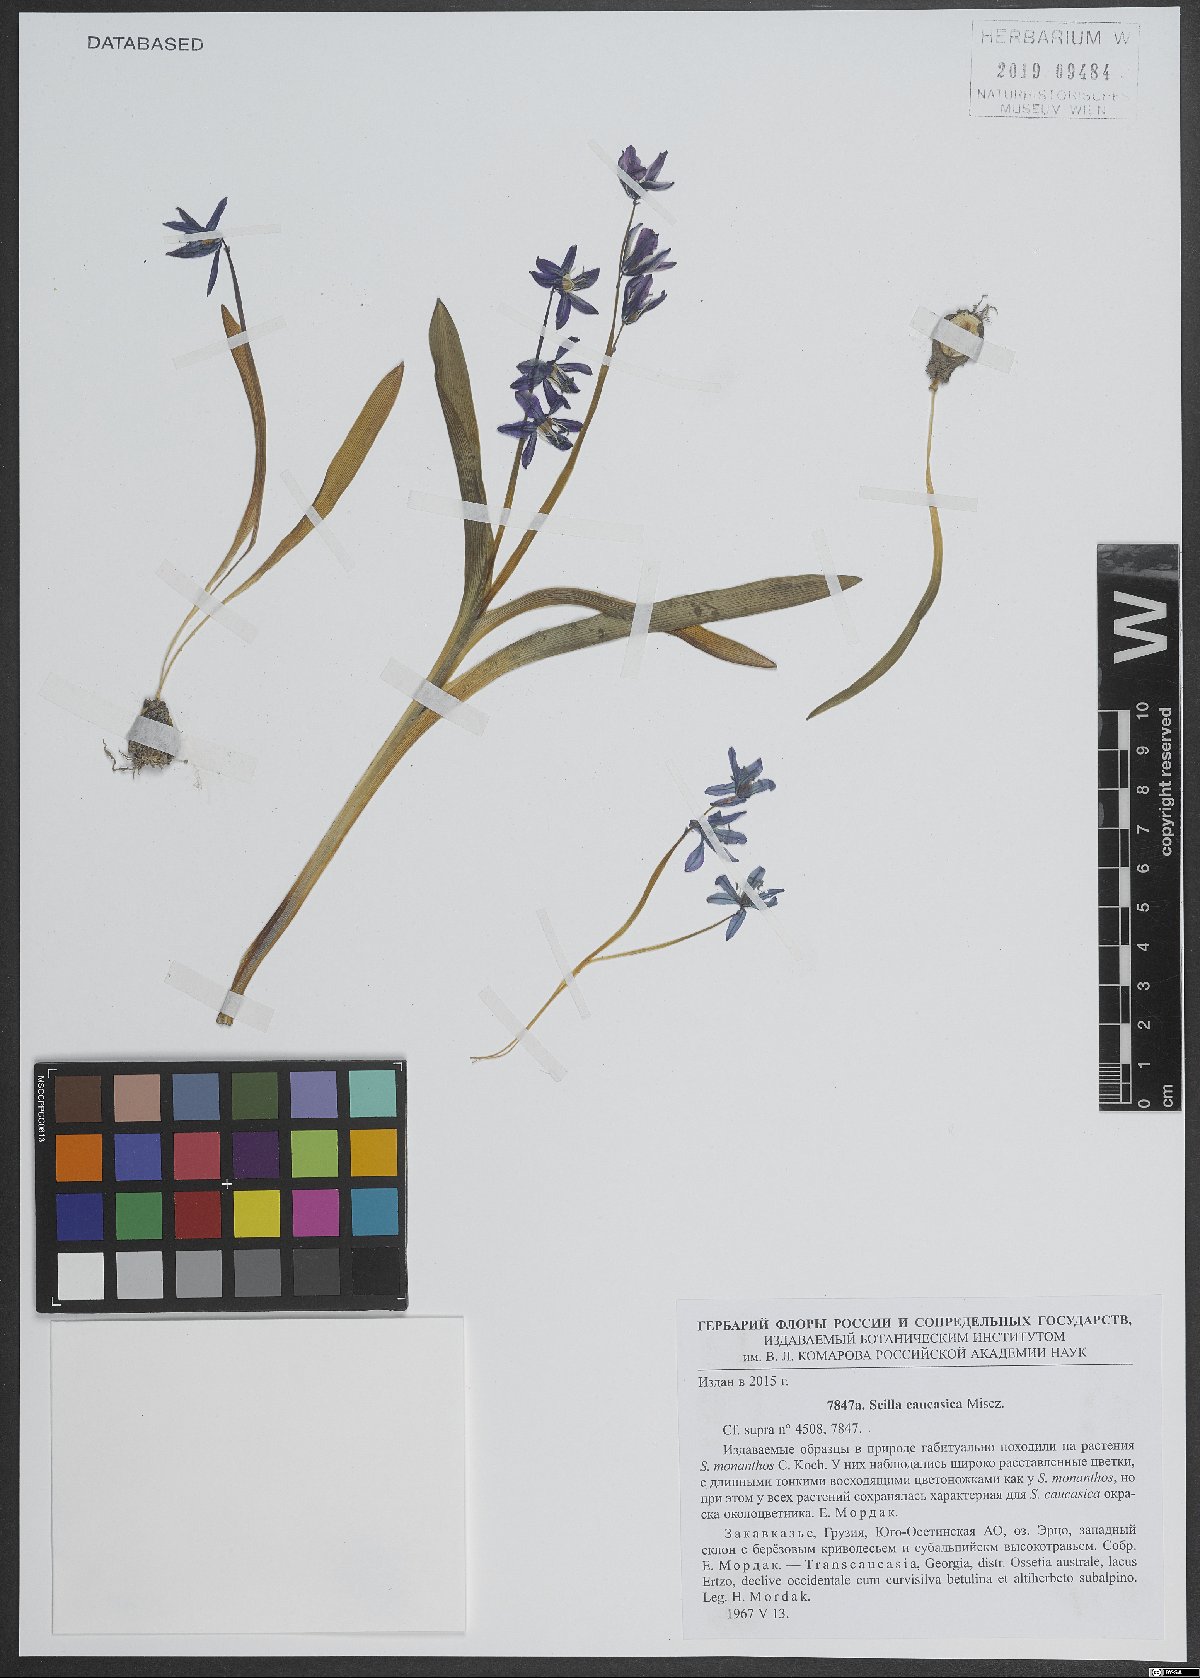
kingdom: Plantae
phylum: Tracheophyta
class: Liliopsida
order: Asparagales
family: Asparagaceae
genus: Scilla
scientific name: Scilla siberica
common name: Siberian squill
